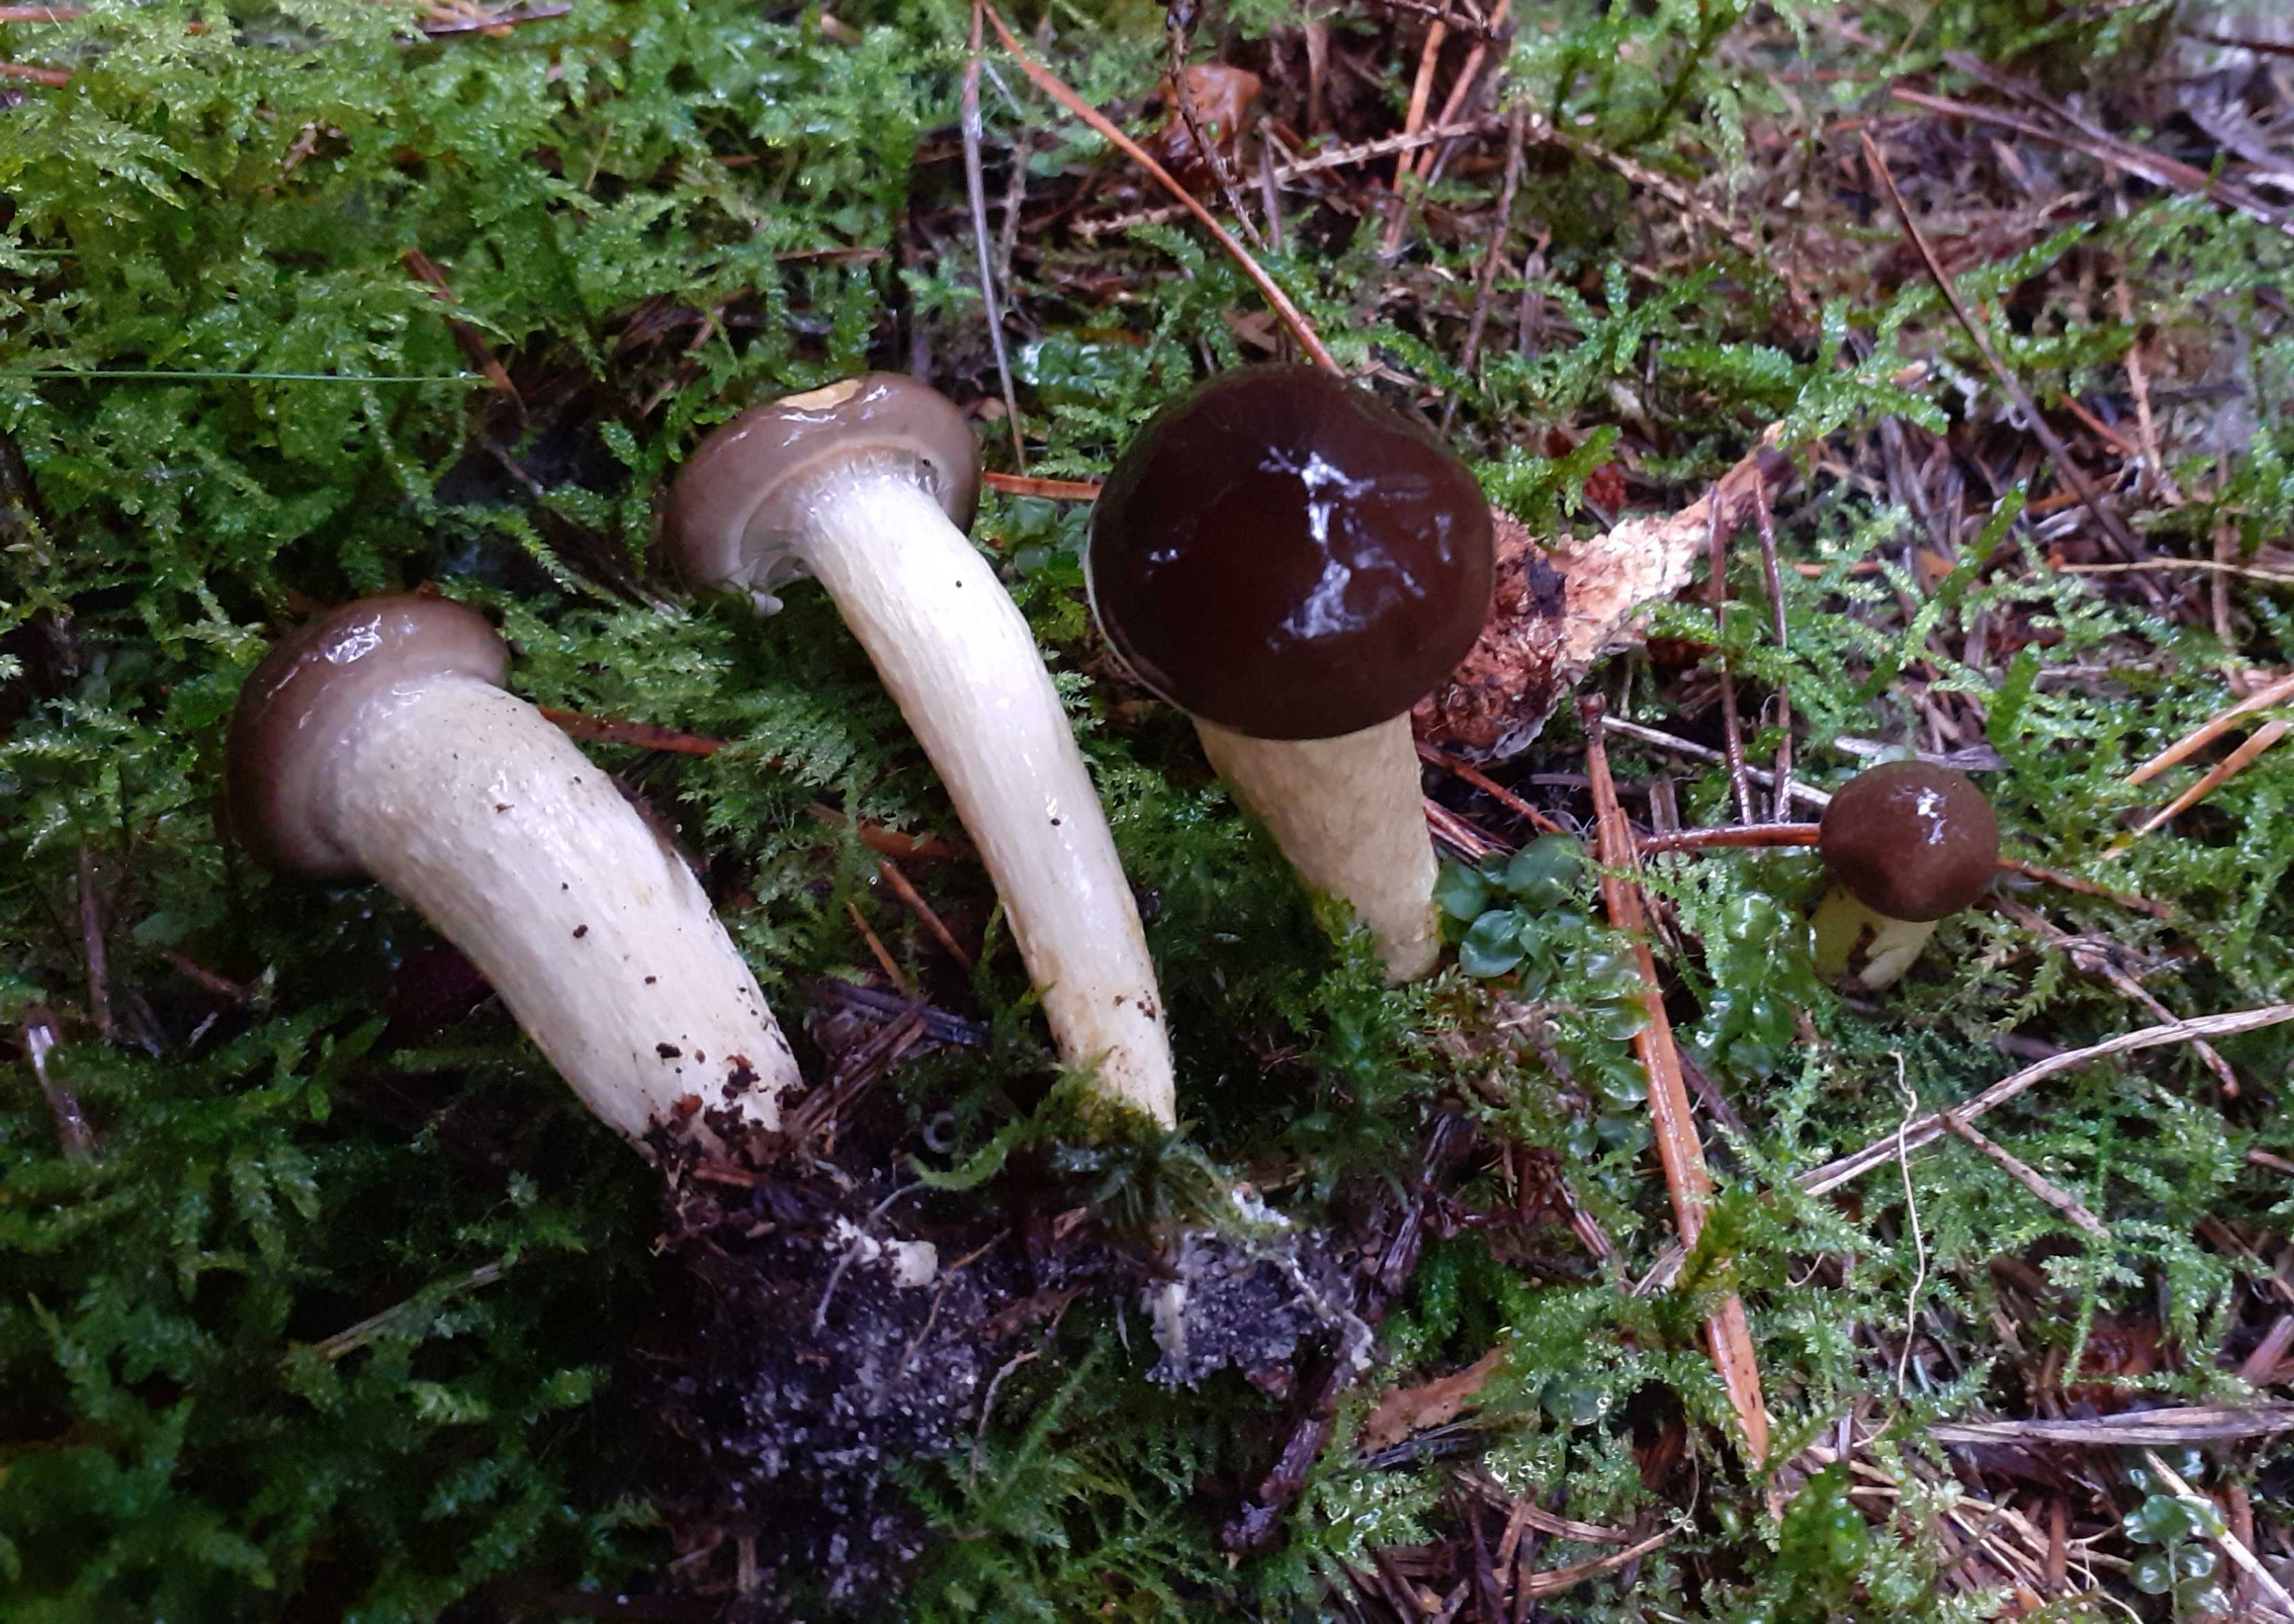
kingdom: Fungi
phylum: Basidiomycota
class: Agaricomycetes
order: Agaricales
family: Hygrophoraceae
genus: Hygrophorus
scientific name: Hygrophorus hypothejus
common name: frost-sneglehat
